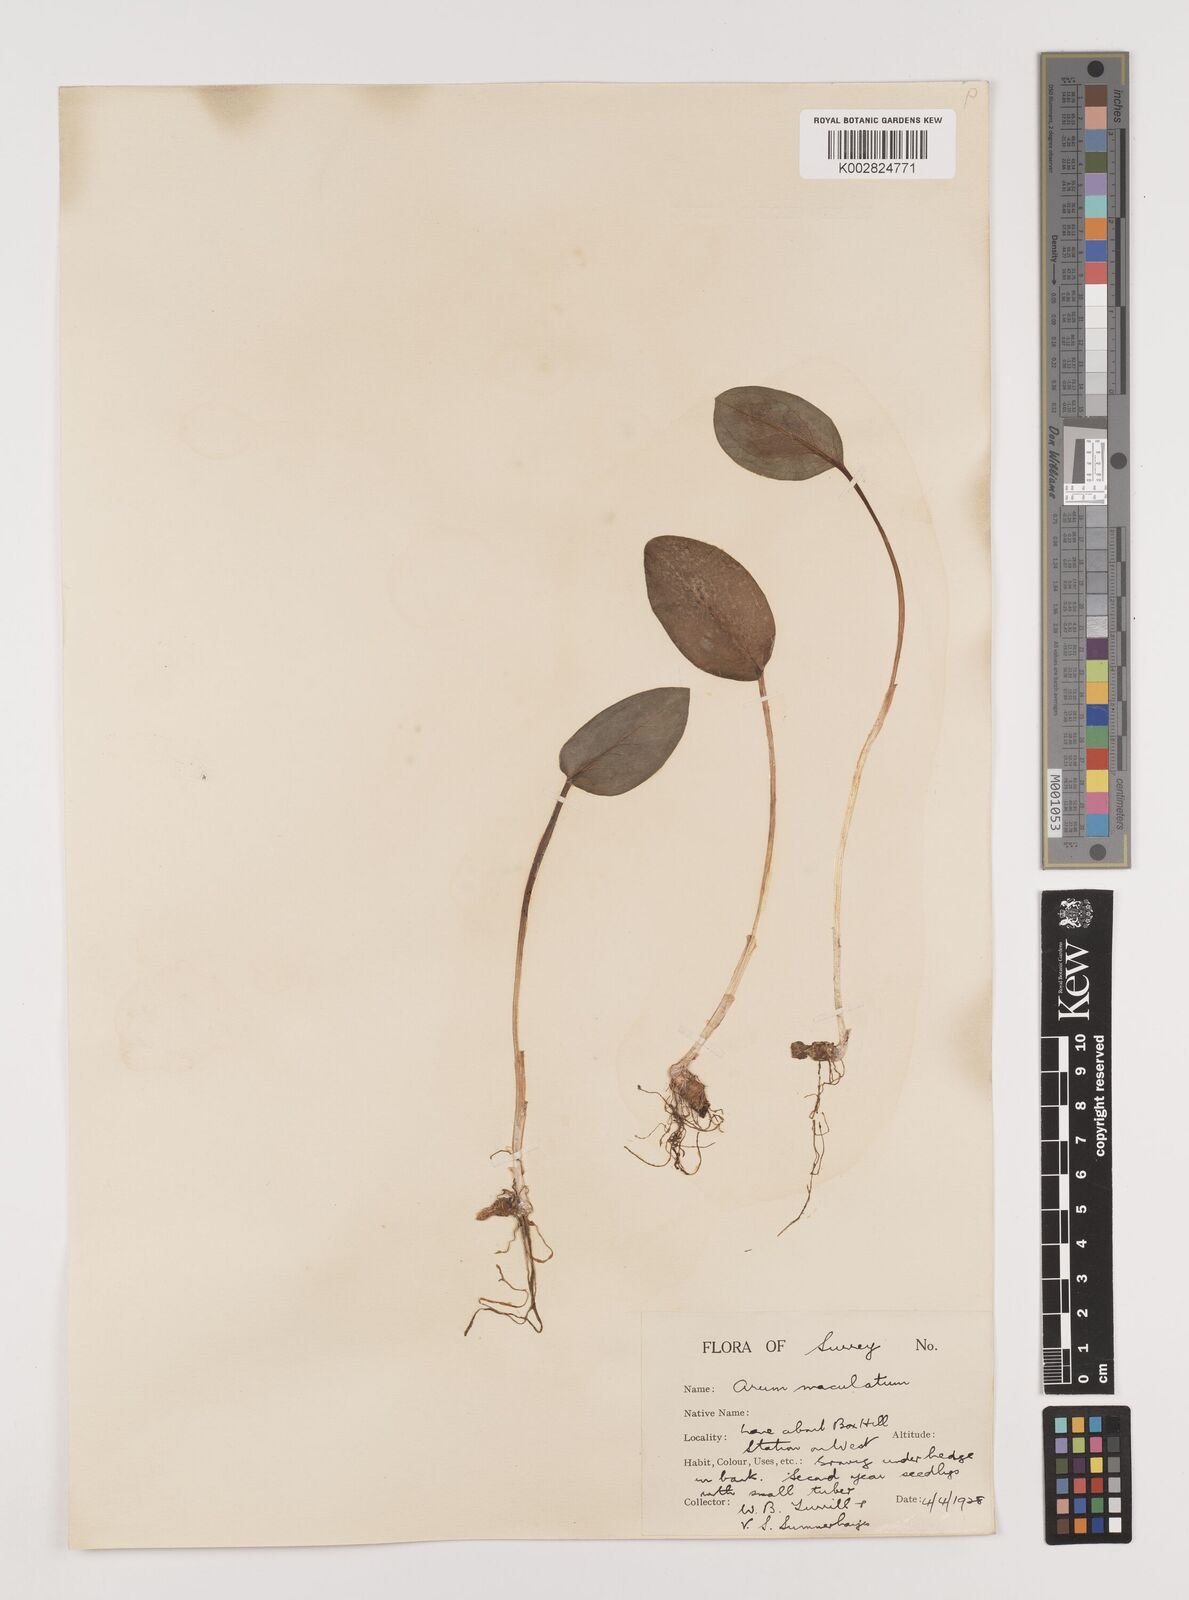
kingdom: Plantae
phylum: Tracheophyta
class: Liliopsida
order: Alismatales
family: Araceae
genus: Arum
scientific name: Arum maculatum
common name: Lords-and-ladies
